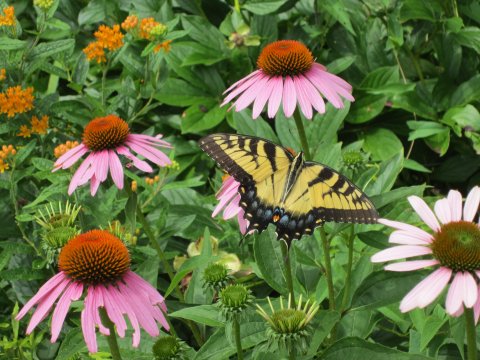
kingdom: Animalia
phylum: Arthropoda
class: Insecta
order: Lepidoptera
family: Papilionidae
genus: Pterourus
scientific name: Pterourus glaucus
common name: Eastern Tiger Swallowtail
